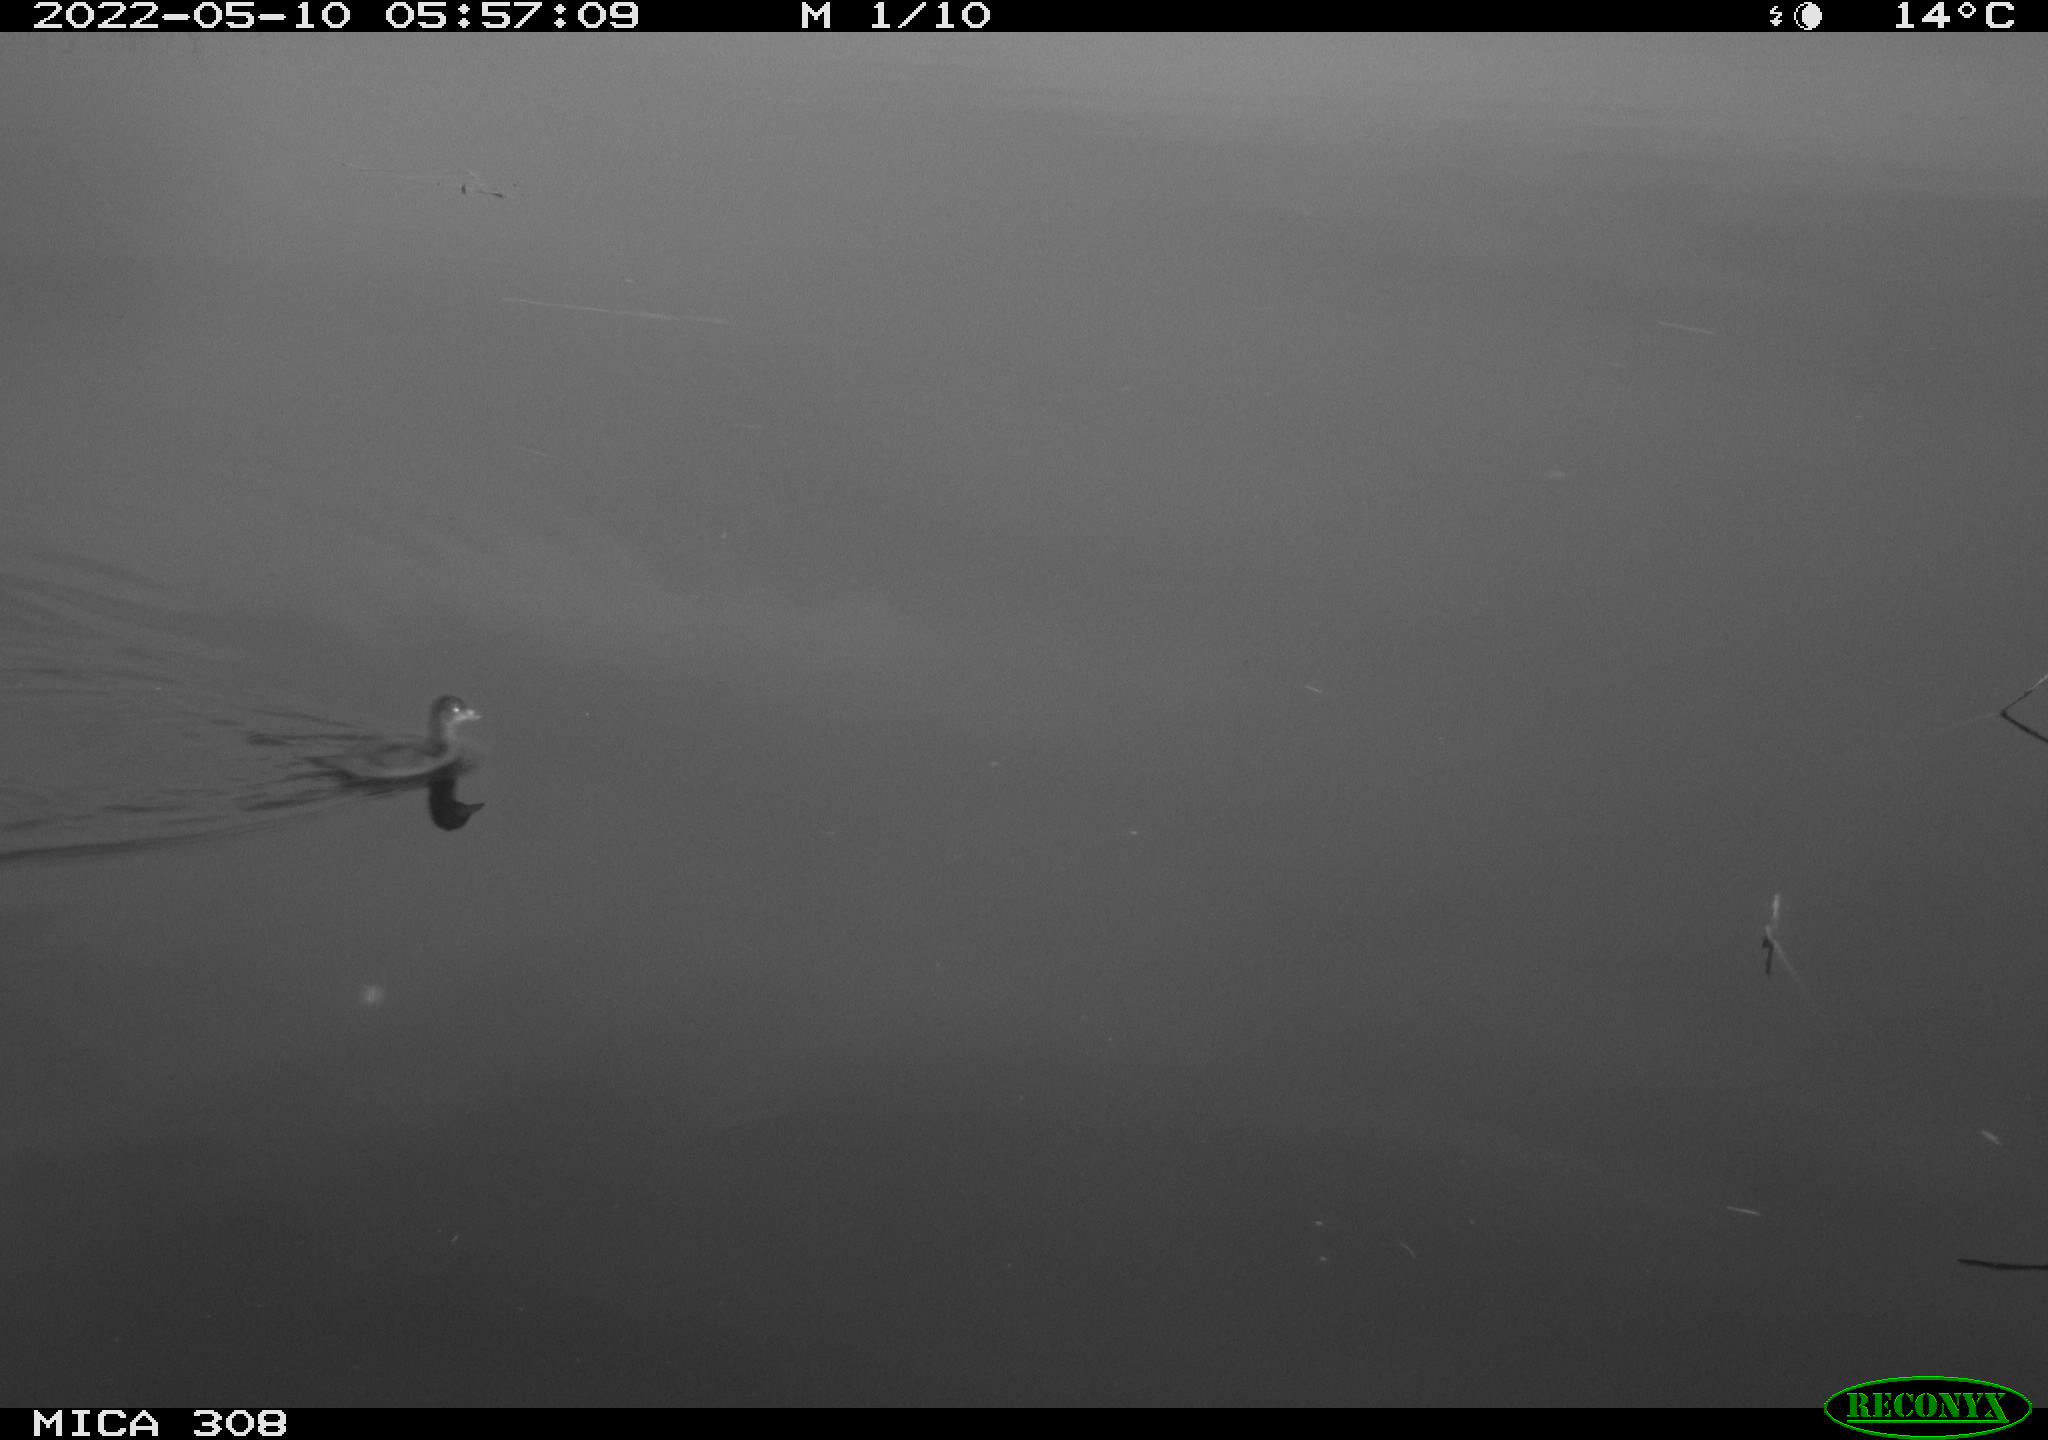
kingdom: Animalia
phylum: Chordata
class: Aves
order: Anseriformes
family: Anatidae
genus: Anas
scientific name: Anas platyrhynchos
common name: Mallard
